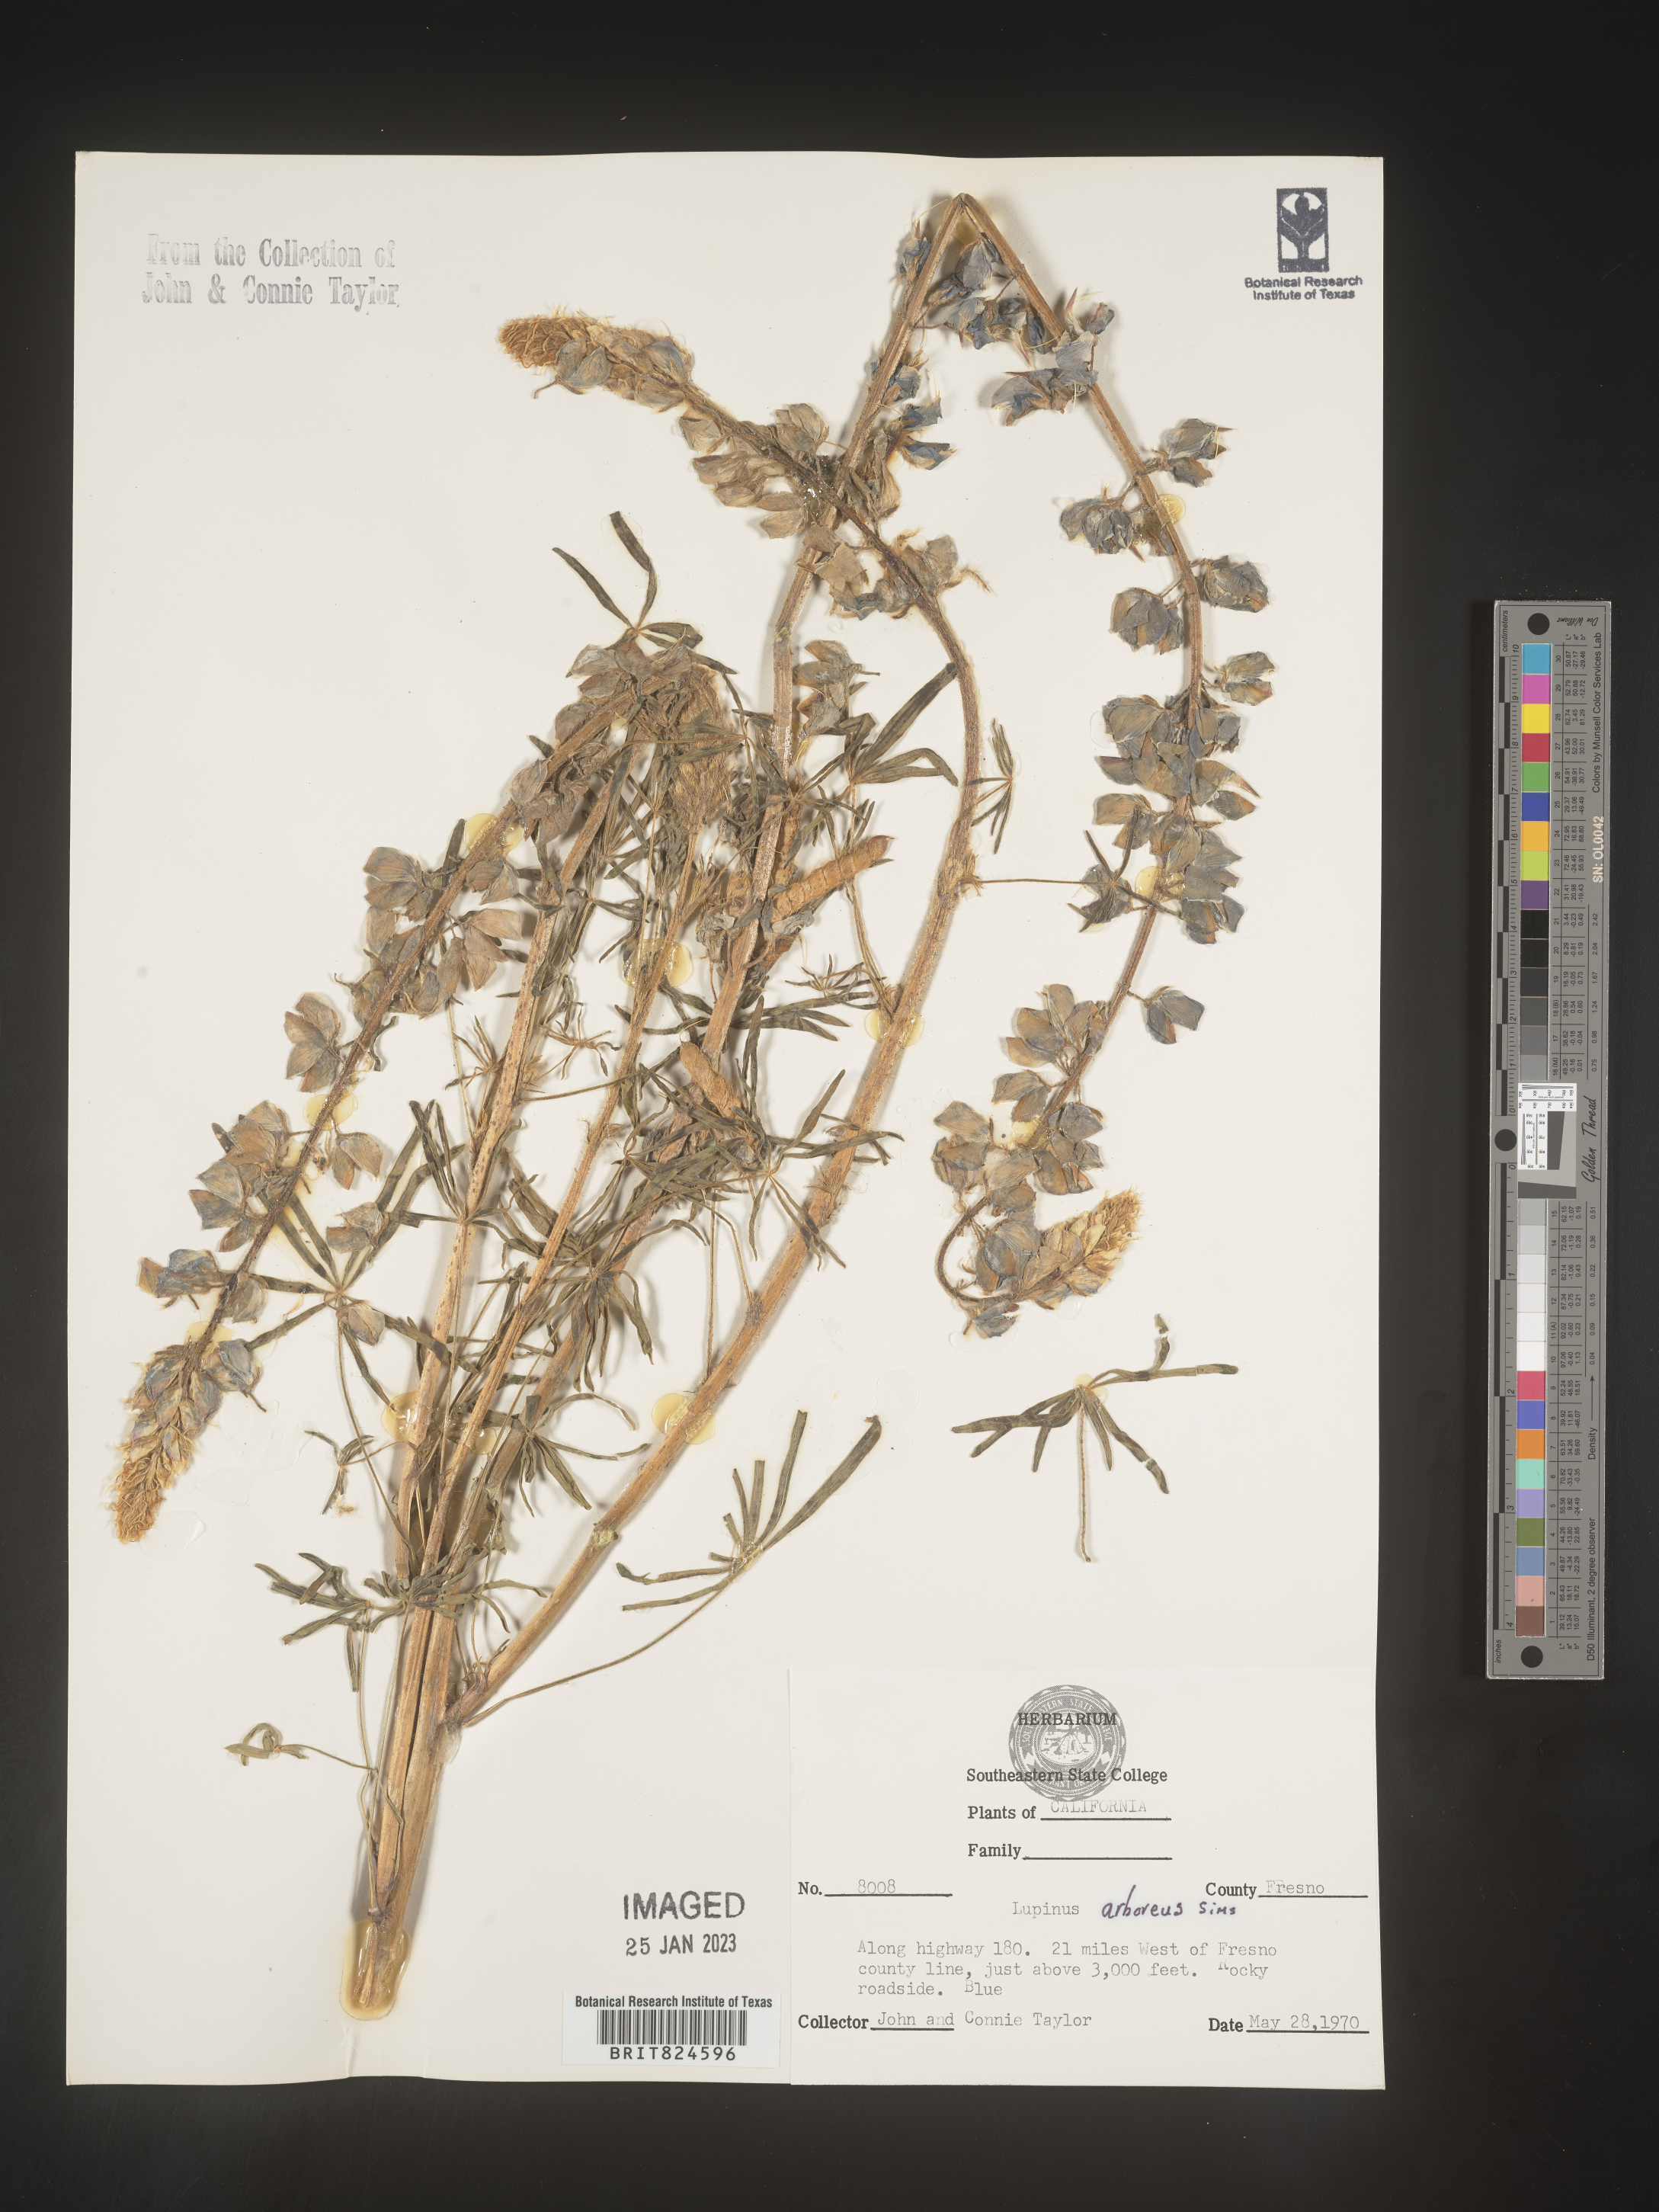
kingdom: Plantae
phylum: Tracheophyta
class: Magnoliopsida
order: Fabales
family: Fabaceae
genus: Lupinus
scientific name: Lupinus
